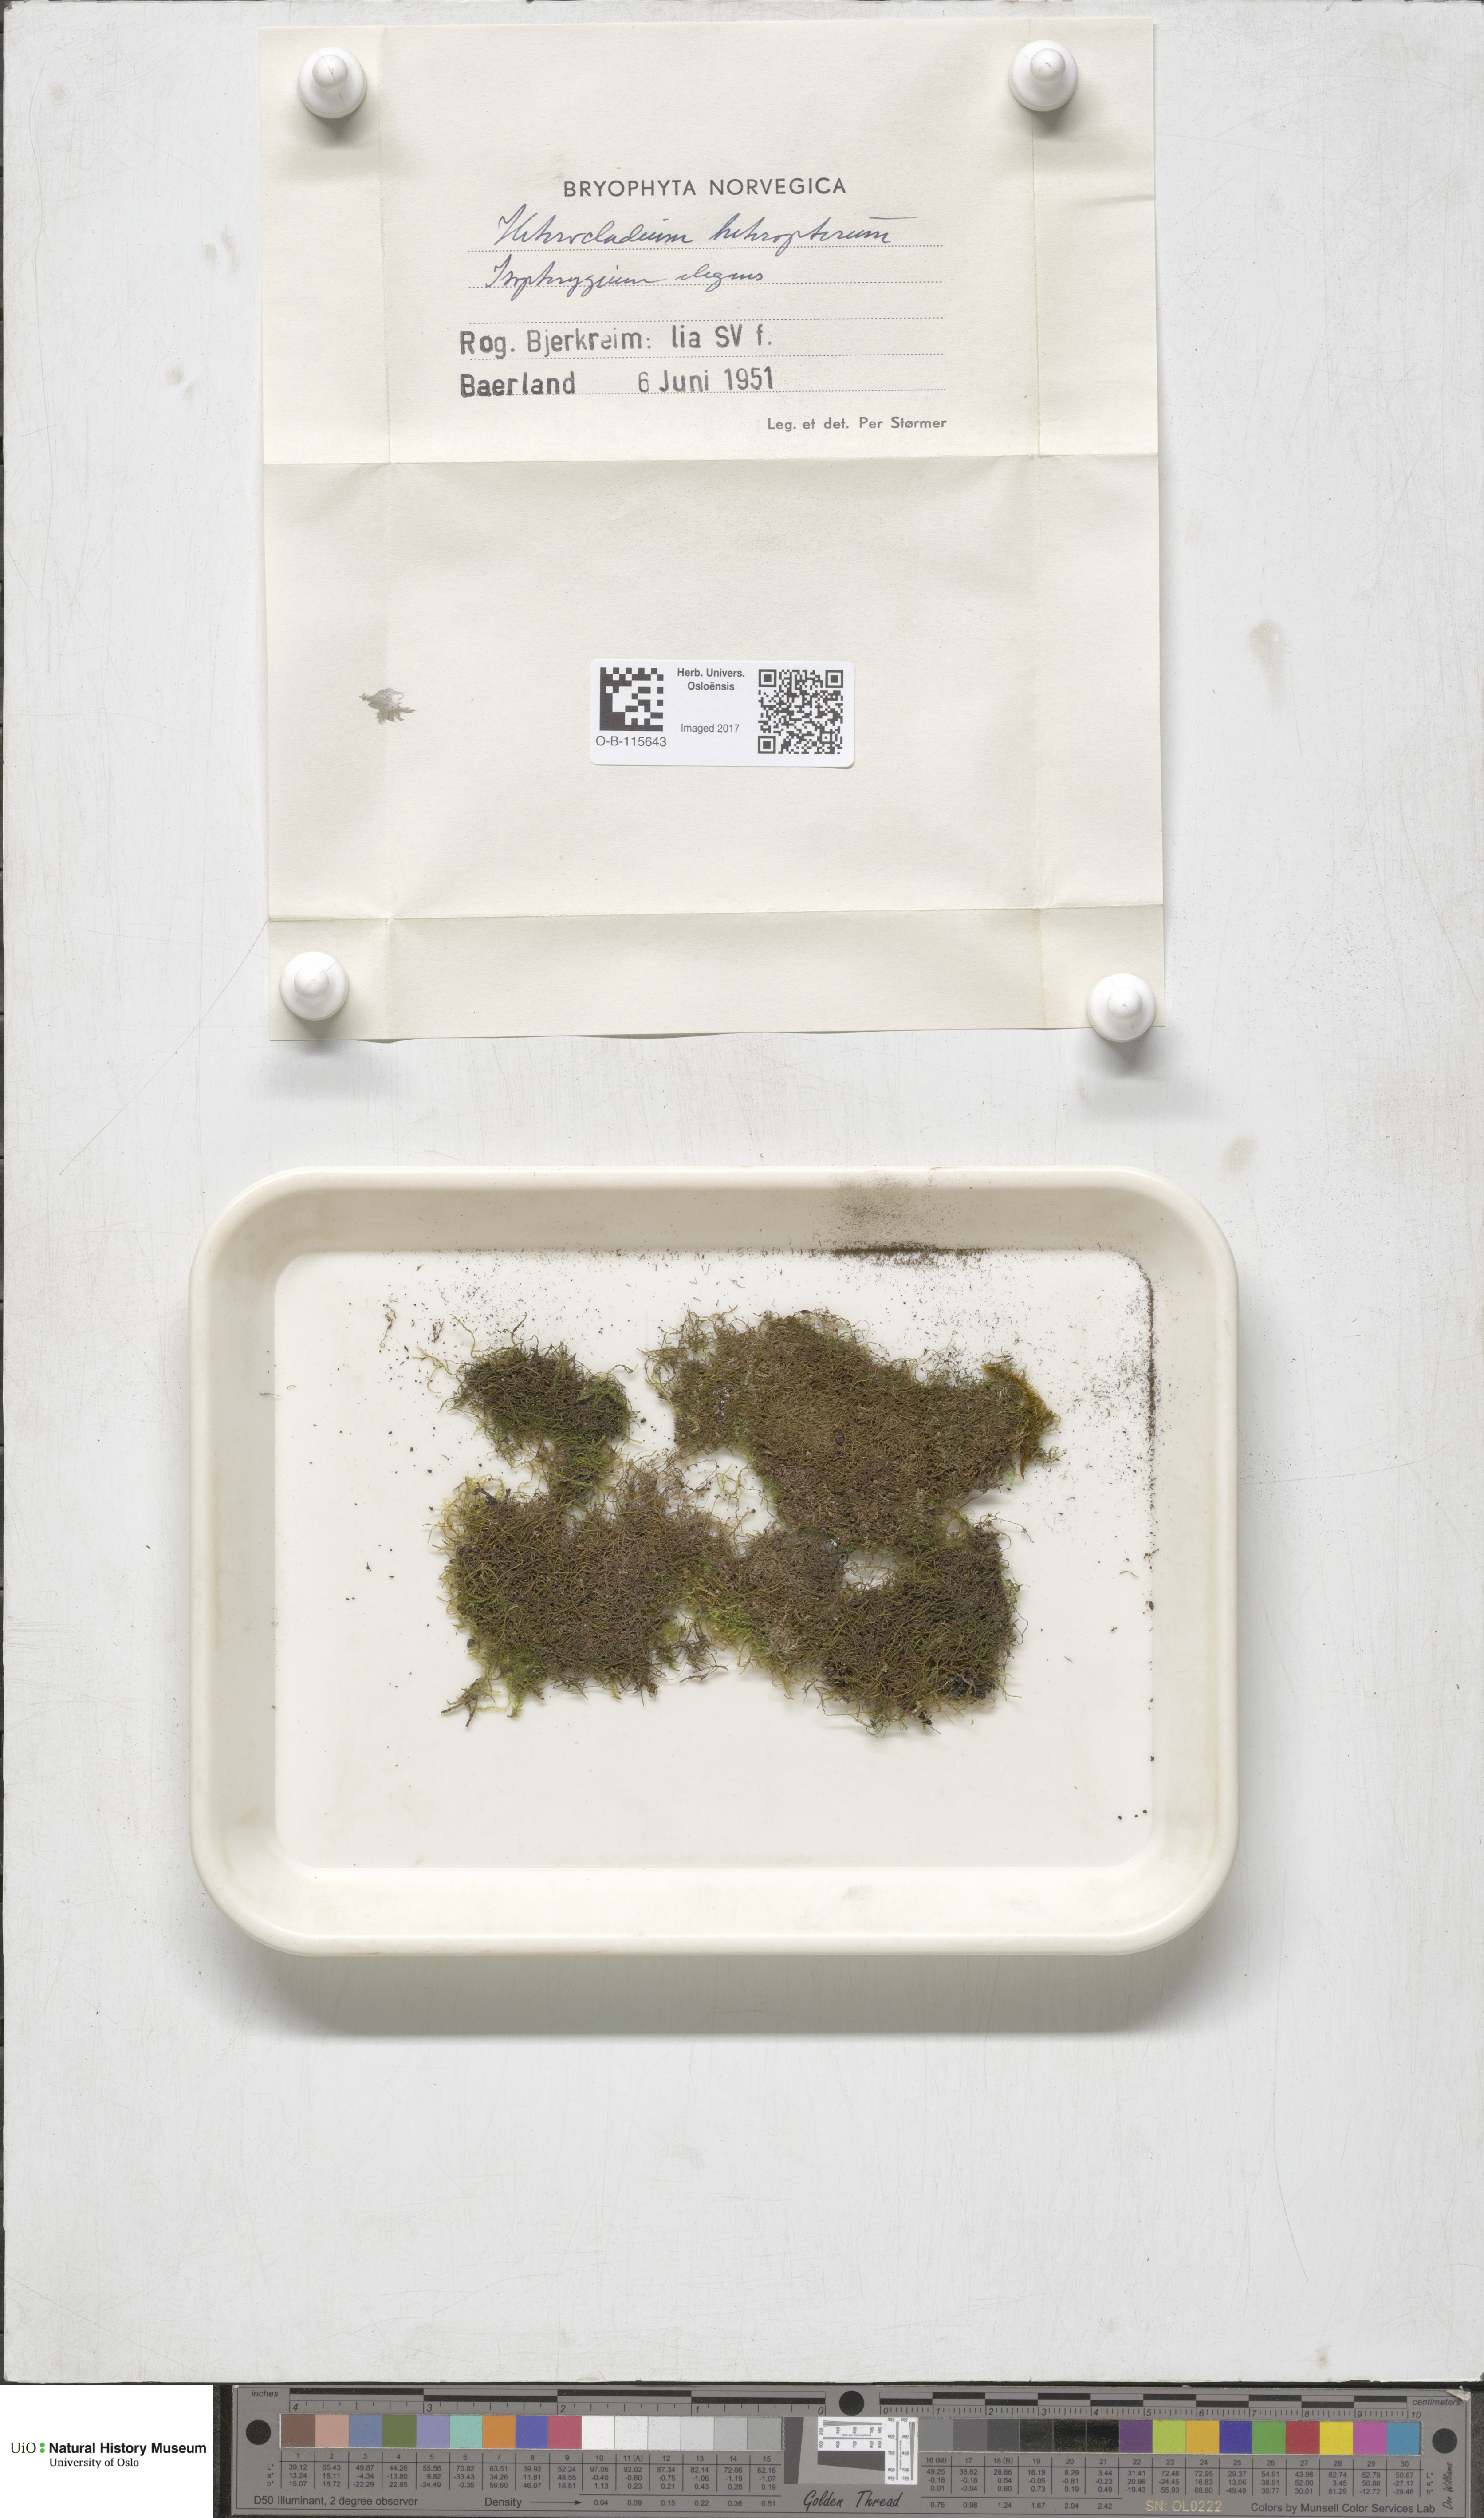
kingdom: Plantae
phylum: Bryophyta
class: Bryopsida
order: Hypnales
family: Lembophyllaceae
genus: Heterocladium
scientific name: Heterocladium heteropterum
